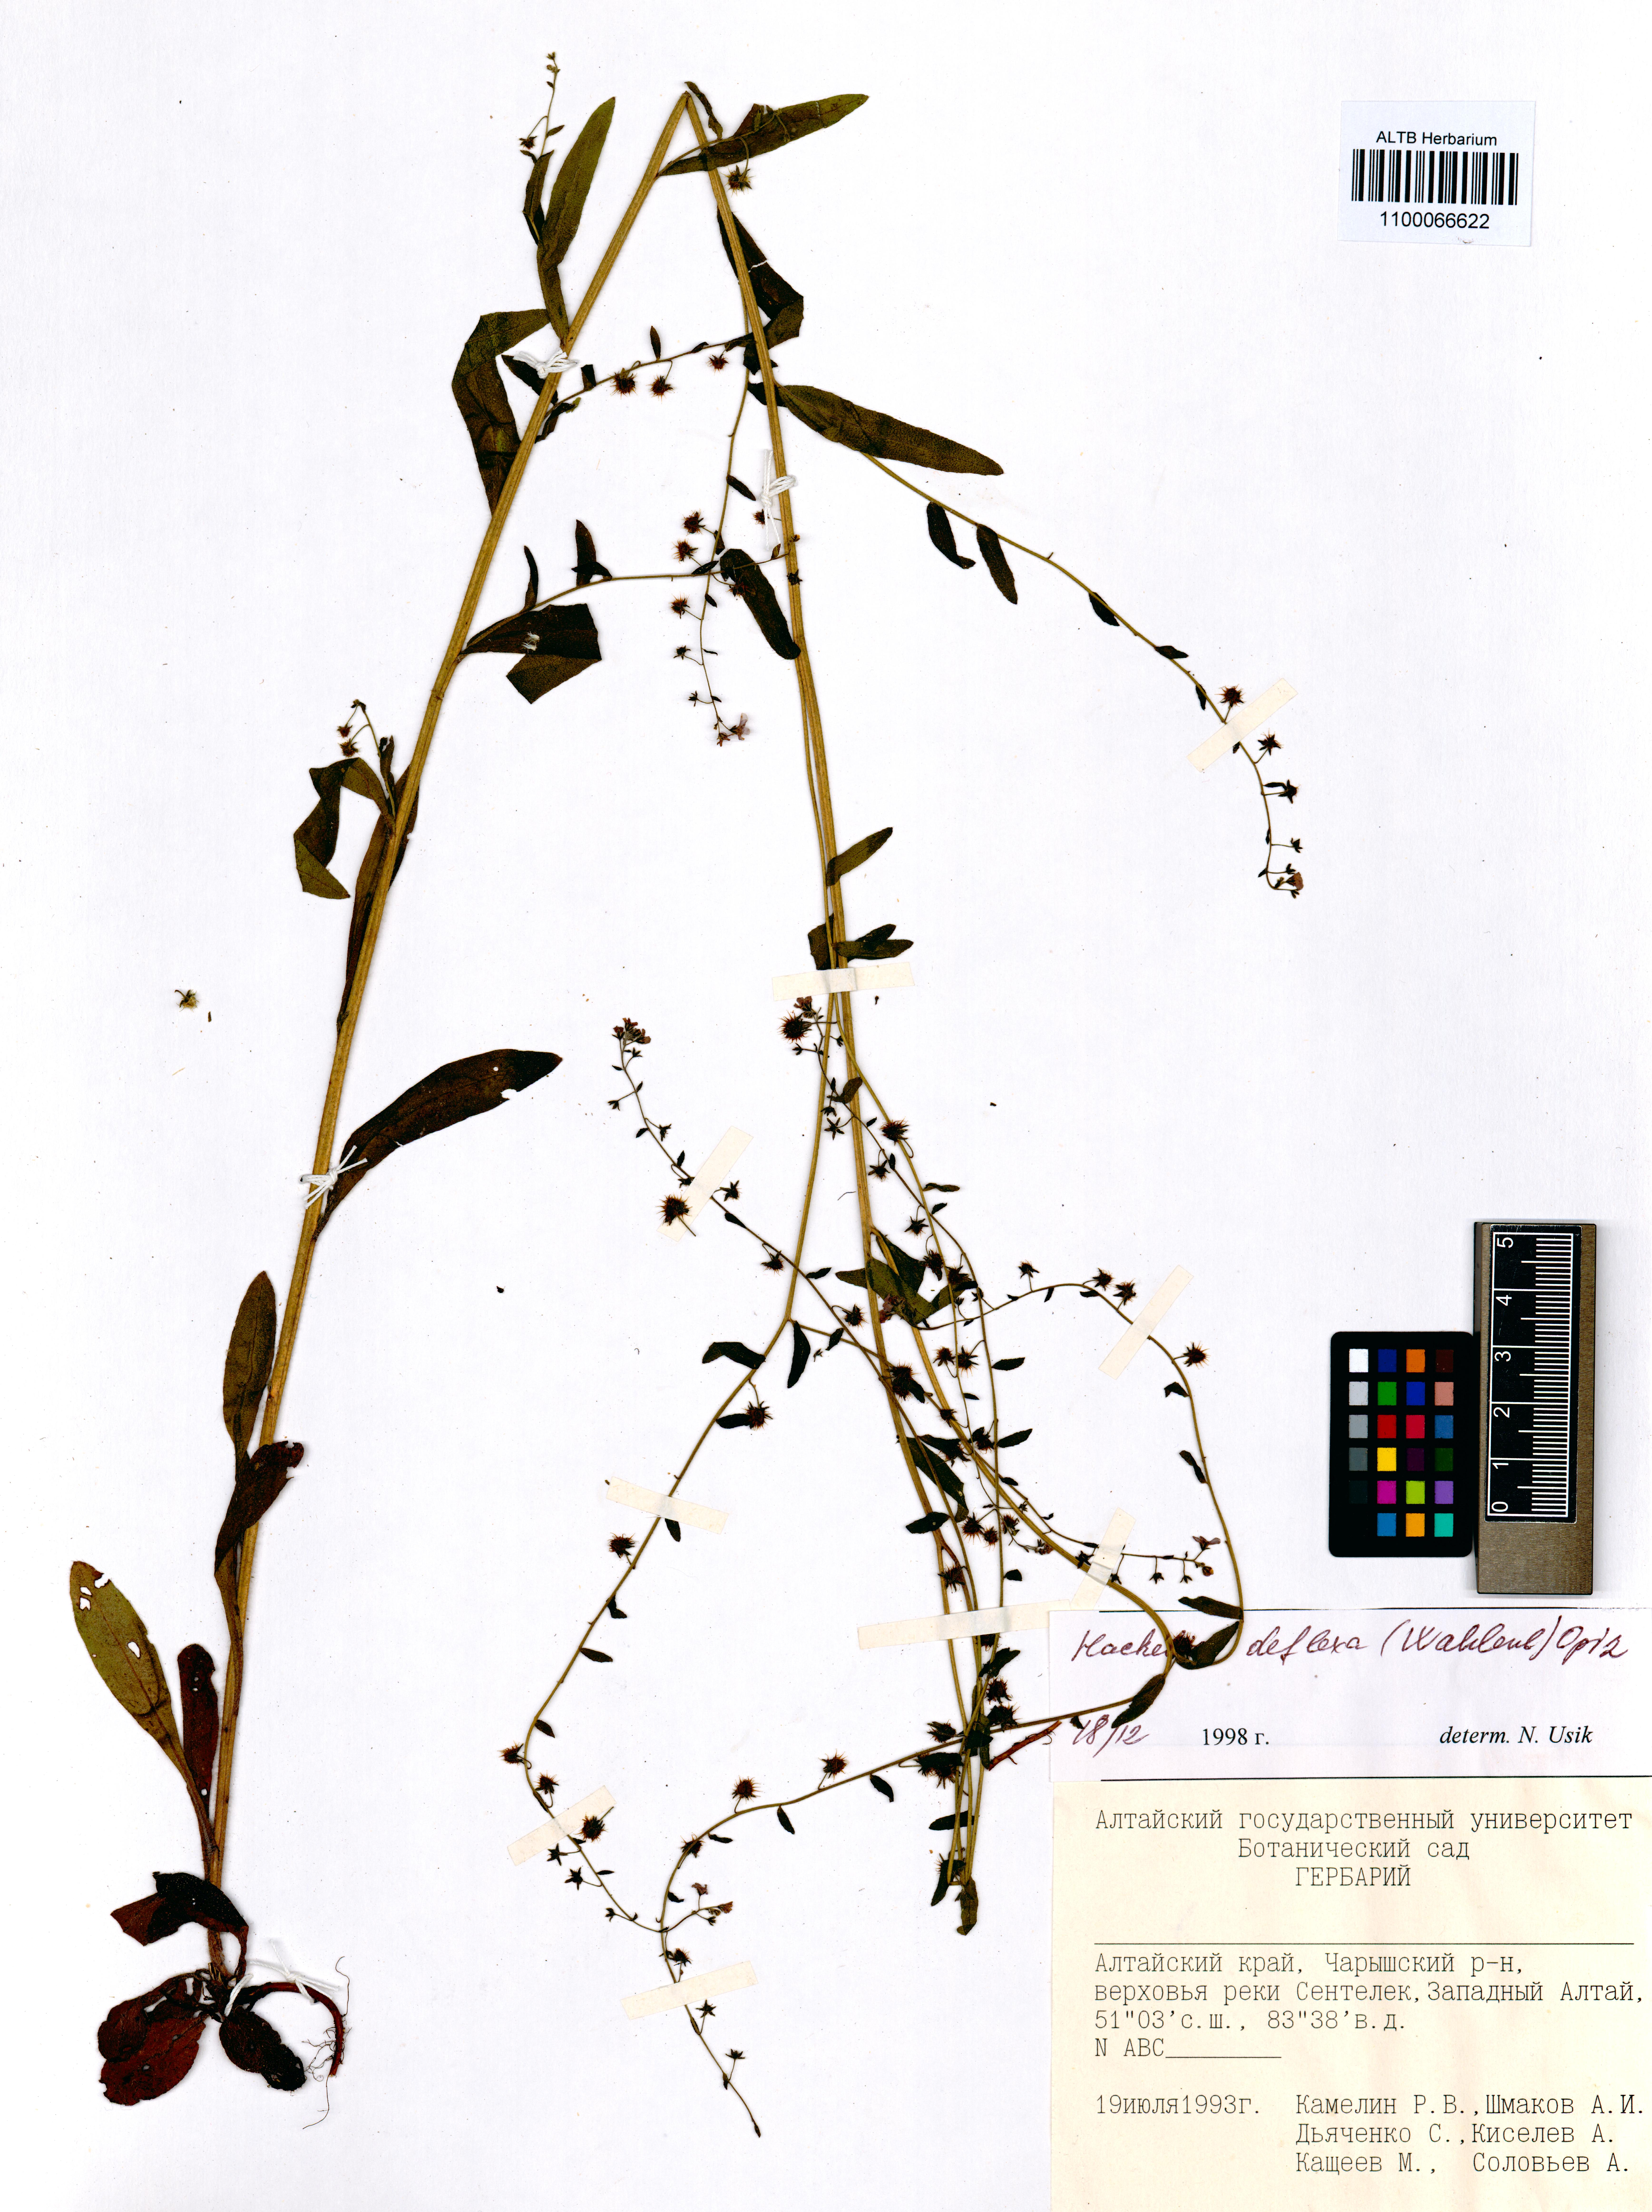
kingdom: Plantae
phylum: Tracheophyta
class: Magnoliopsida
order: Boraginales
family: Boraginaceae
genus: Hackelia
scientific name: Hackelia deflexa
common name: Nodding stickseed
